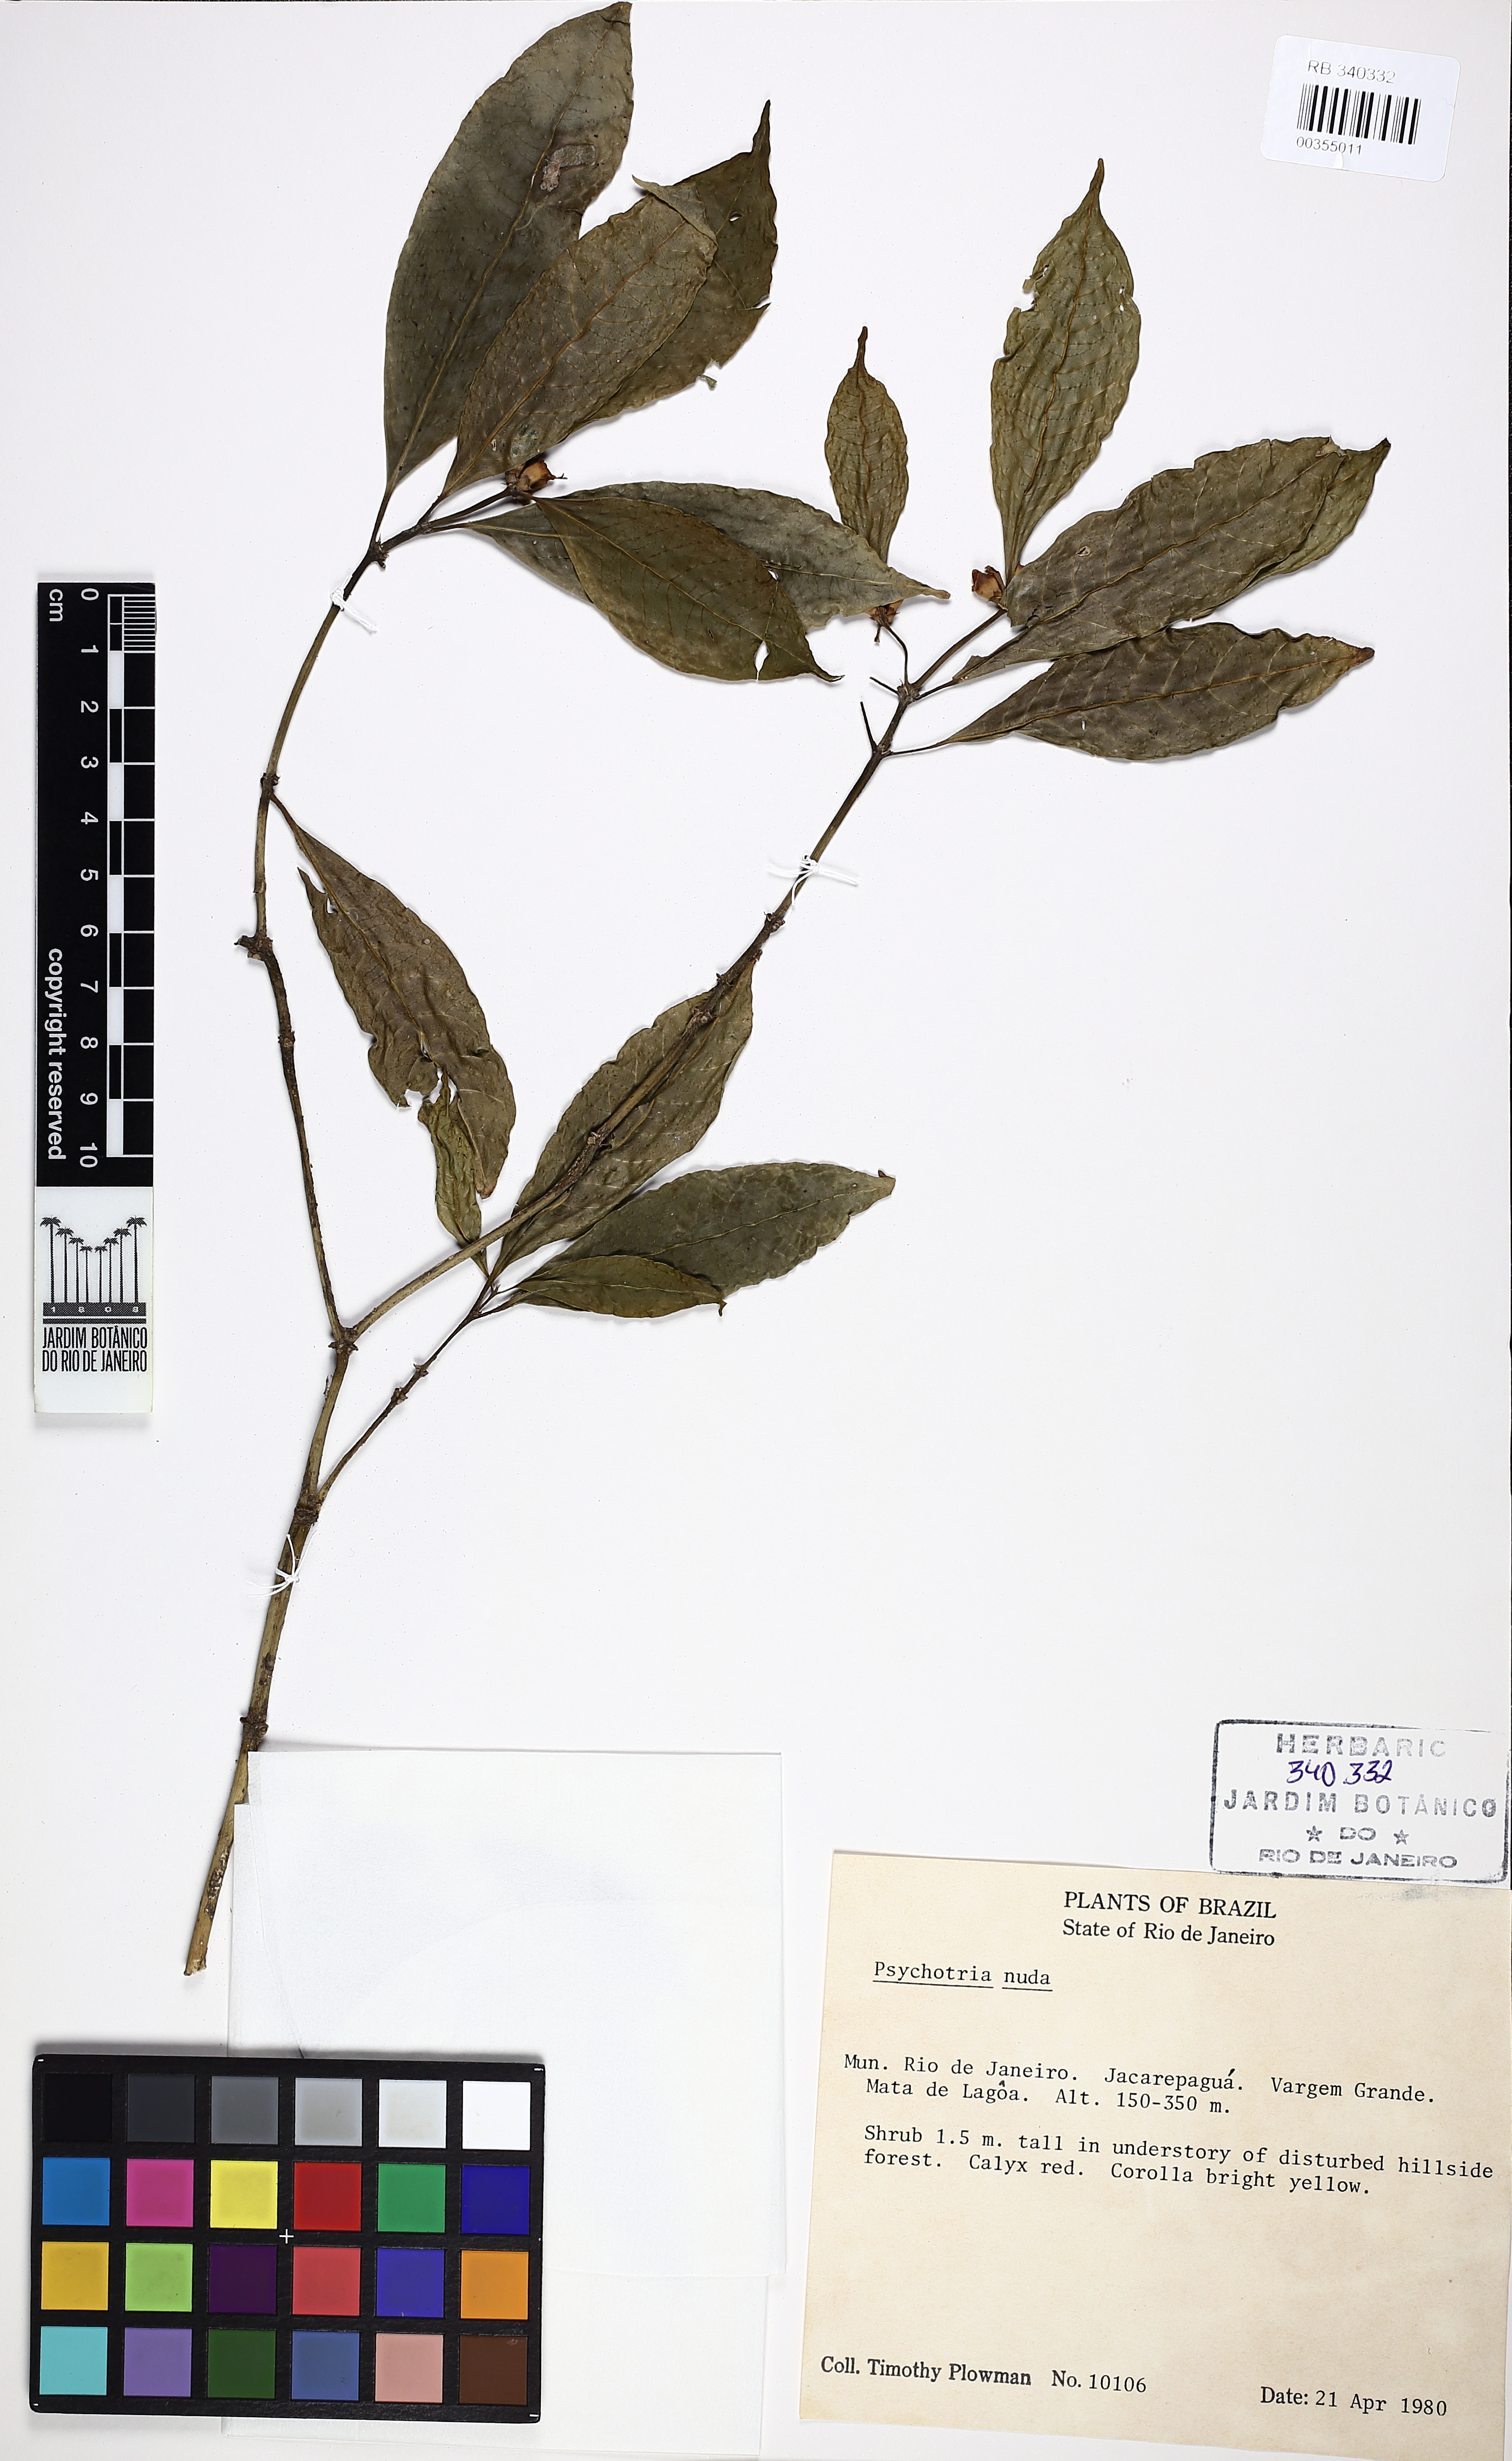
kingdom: Plantae
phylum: Tracheophyta
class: Magnoliopsida
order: Gentianales
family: Rubiaceae
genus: Psychotria
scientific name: Psychotria nuda
